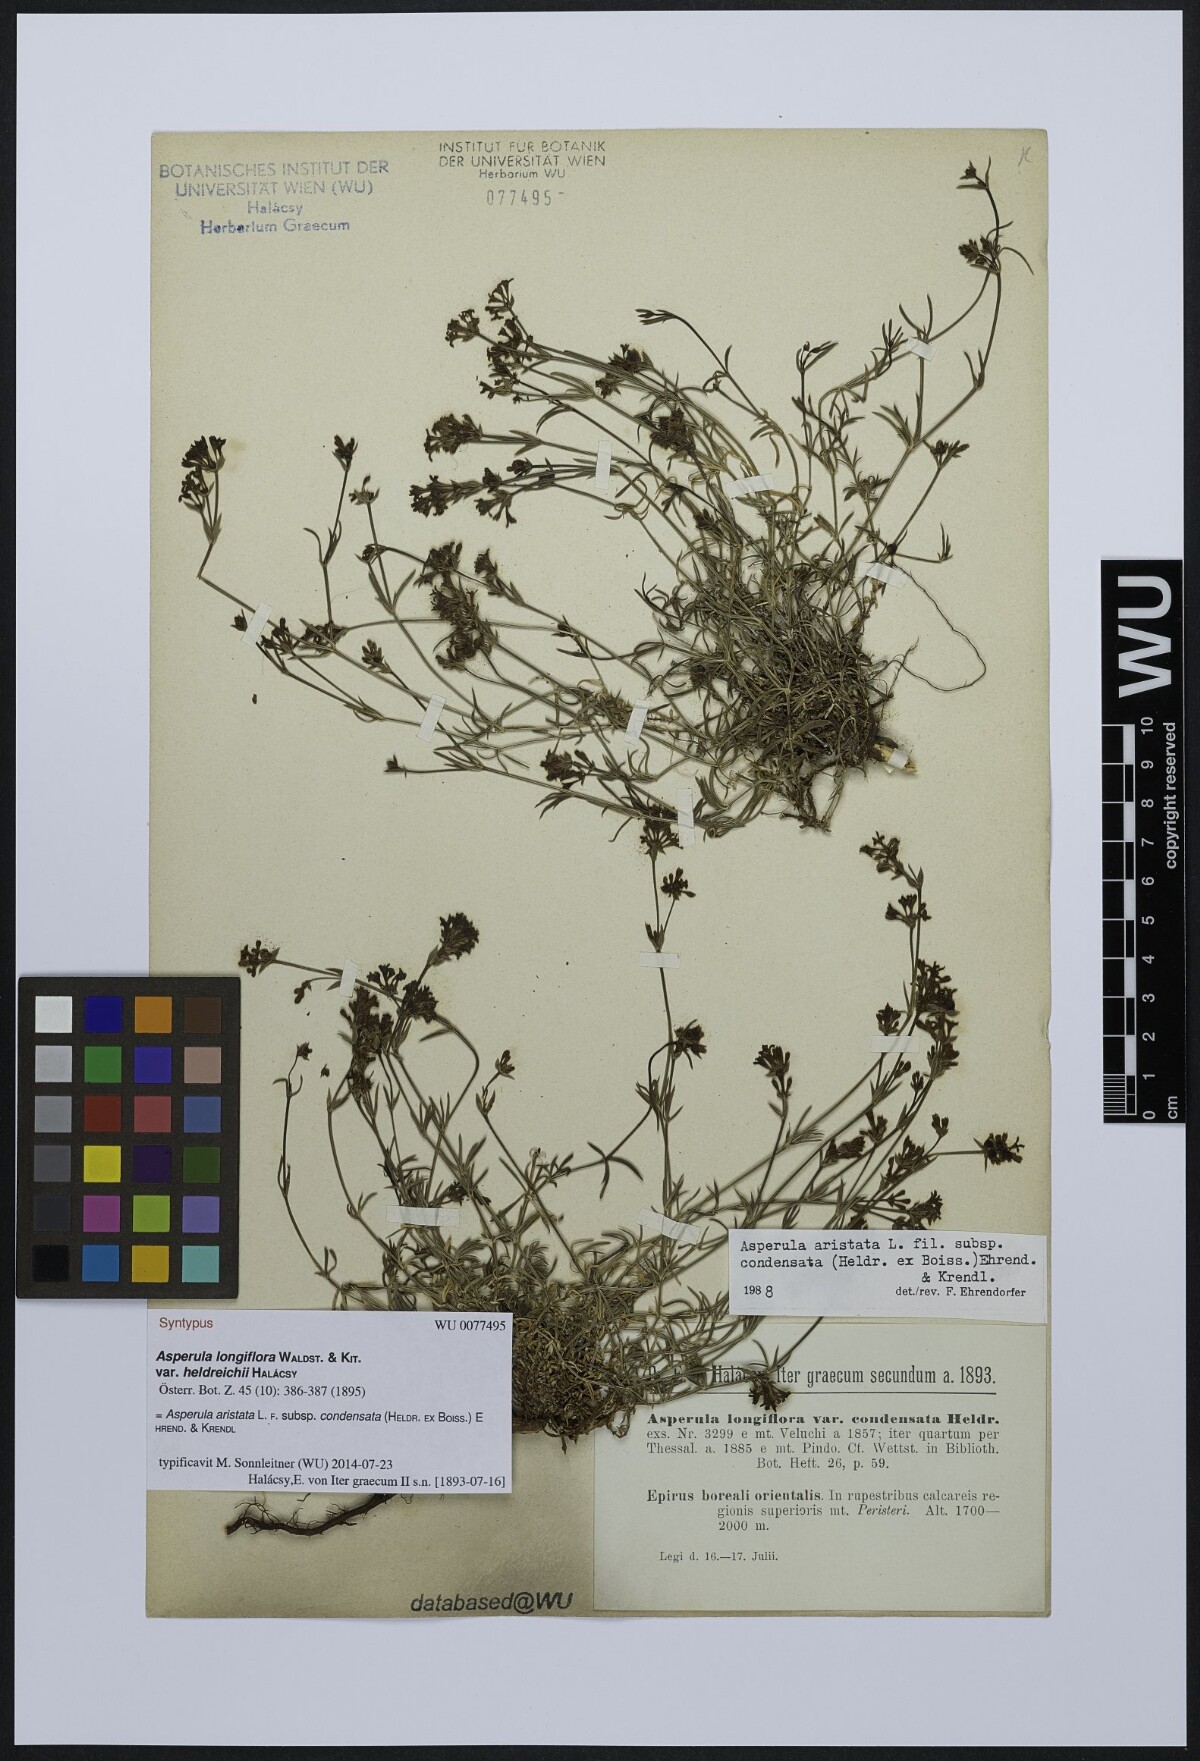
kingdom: Plantae
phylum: Tracheophyta
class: Magnoliopsida
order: Gentianales
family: Rubiaceae
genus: Asperula
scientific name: Asperula longiflora
